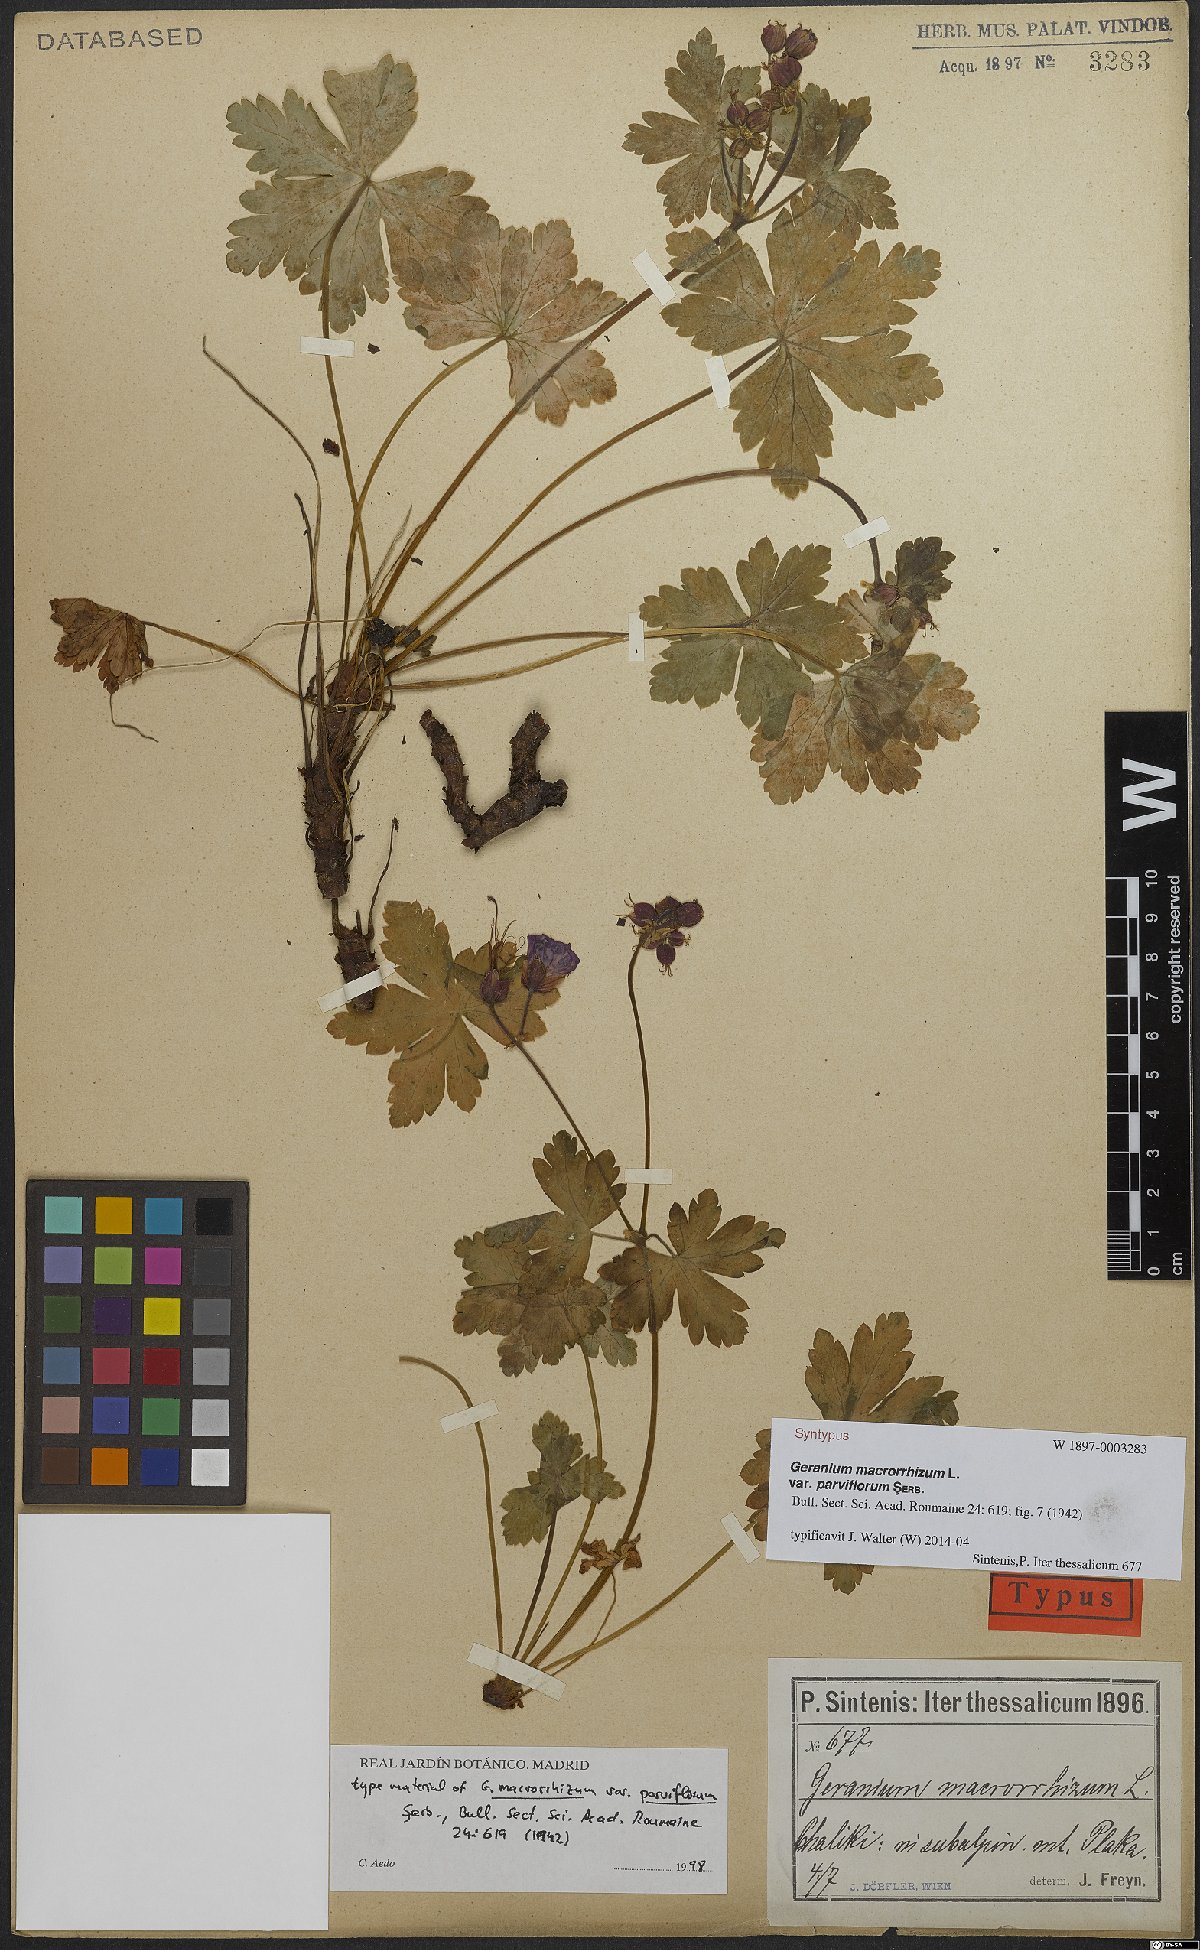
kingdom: Plantae
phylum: Tracheophyta
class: Magnoliopsida
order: Geraniales
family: Geraniaceae
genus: Geranium
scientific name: Geranium macrorrhizum
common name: Rock crane's-bill
